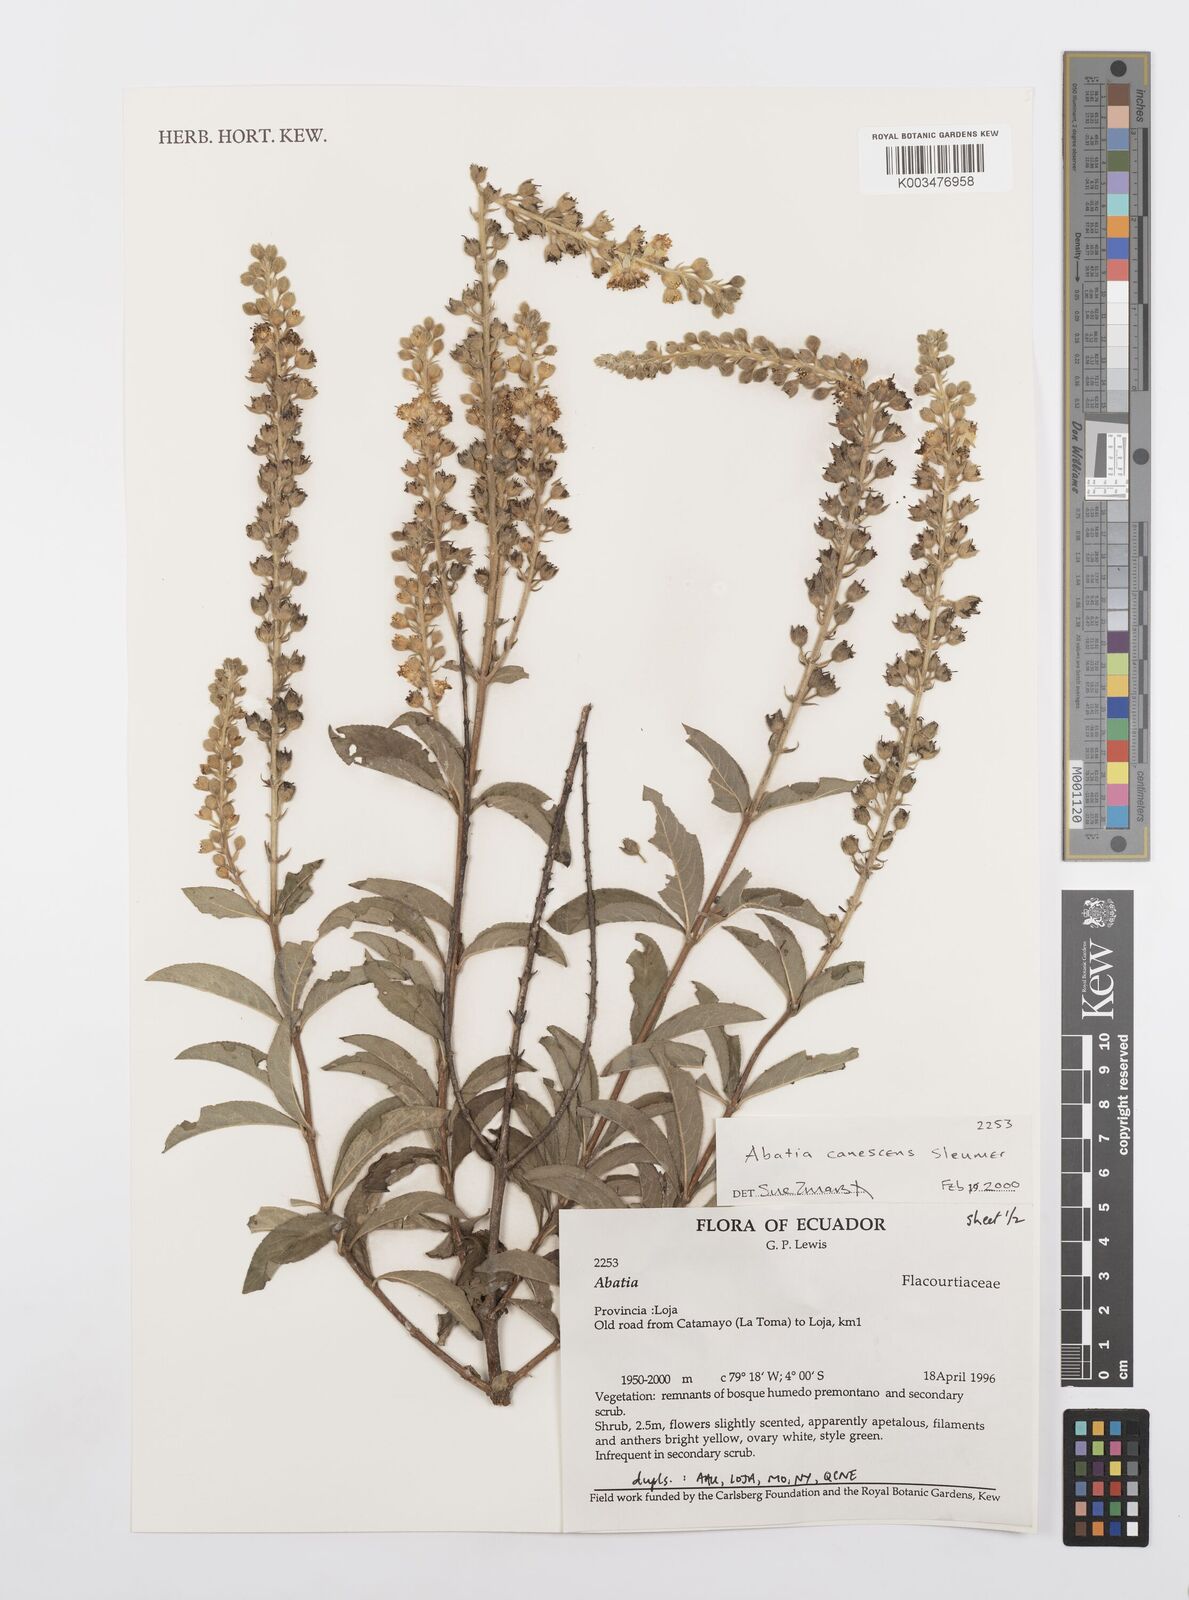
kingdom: Plantae
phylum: Tracheophyta
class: Magnoliopsida
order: Malpighiales
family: Salicaceae
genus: Abatia
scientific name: Abatia canescens
